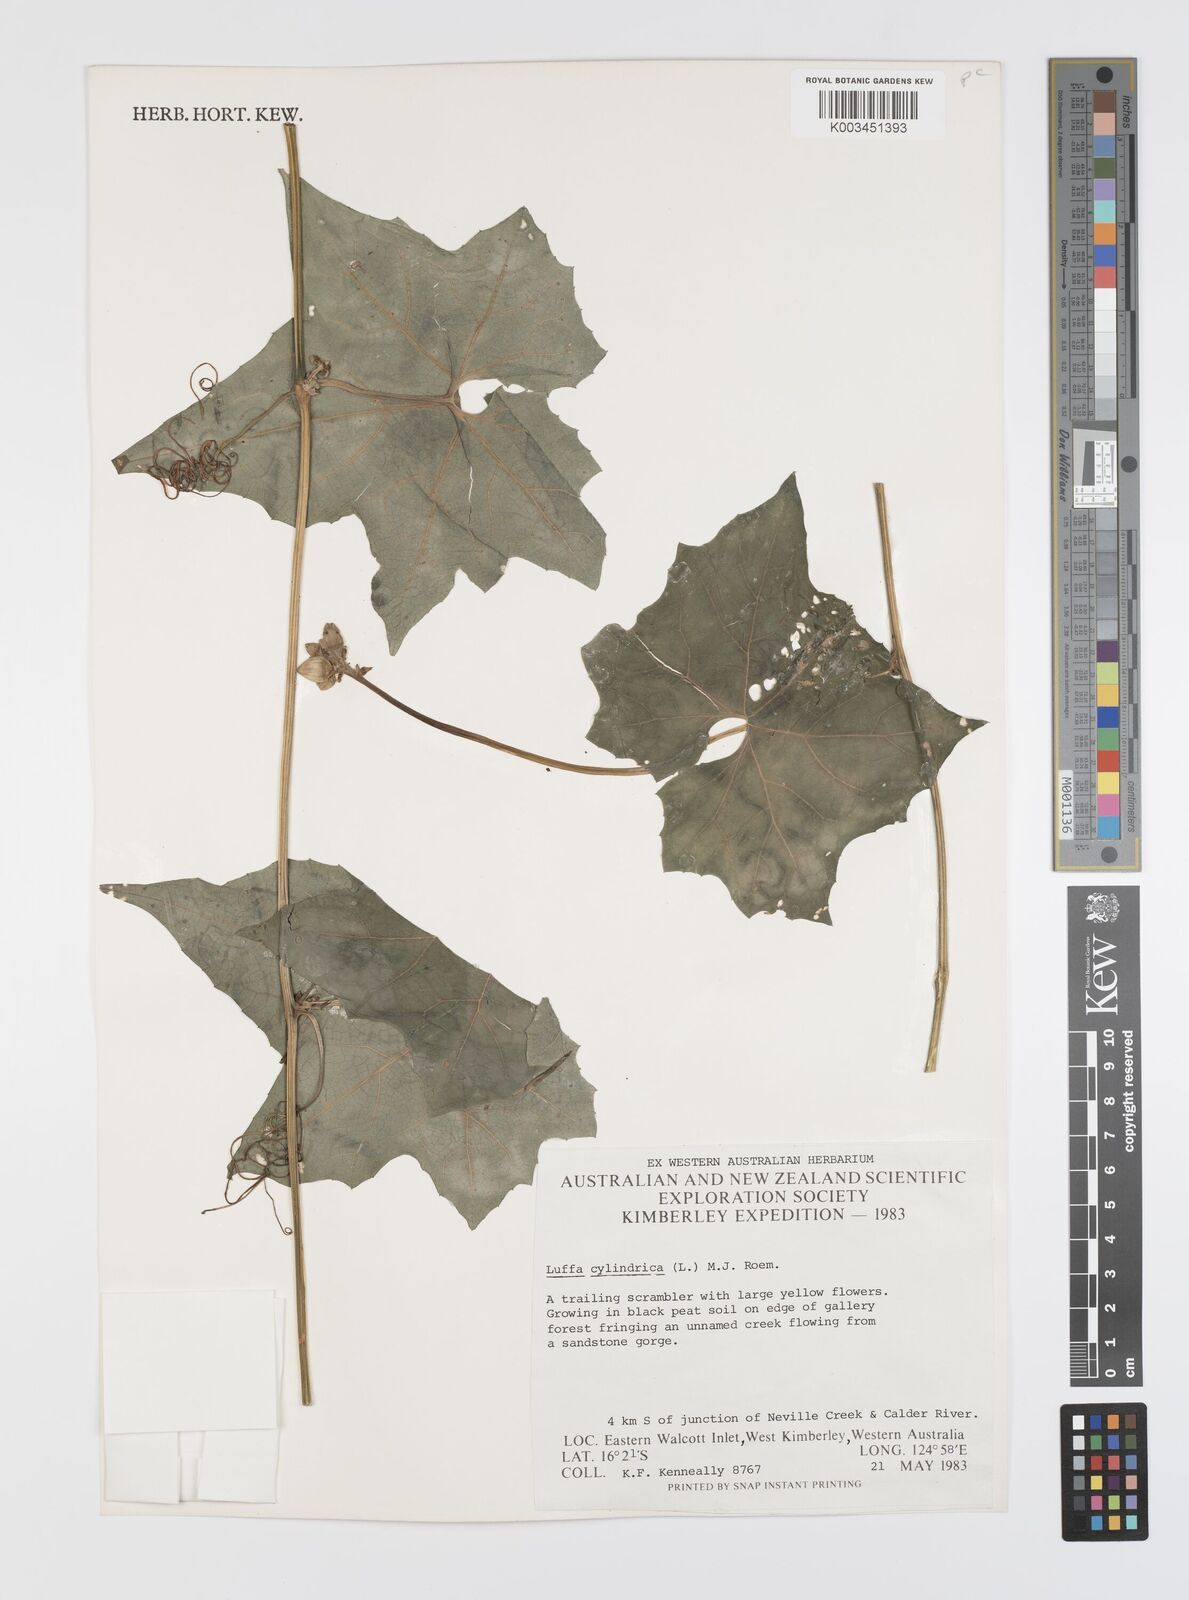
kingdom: Plantae
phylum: Tracheophyta
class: Magnoliopsida
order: Cucurbitales
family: Cucurbitaceae
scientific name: Cucurbitaceae
